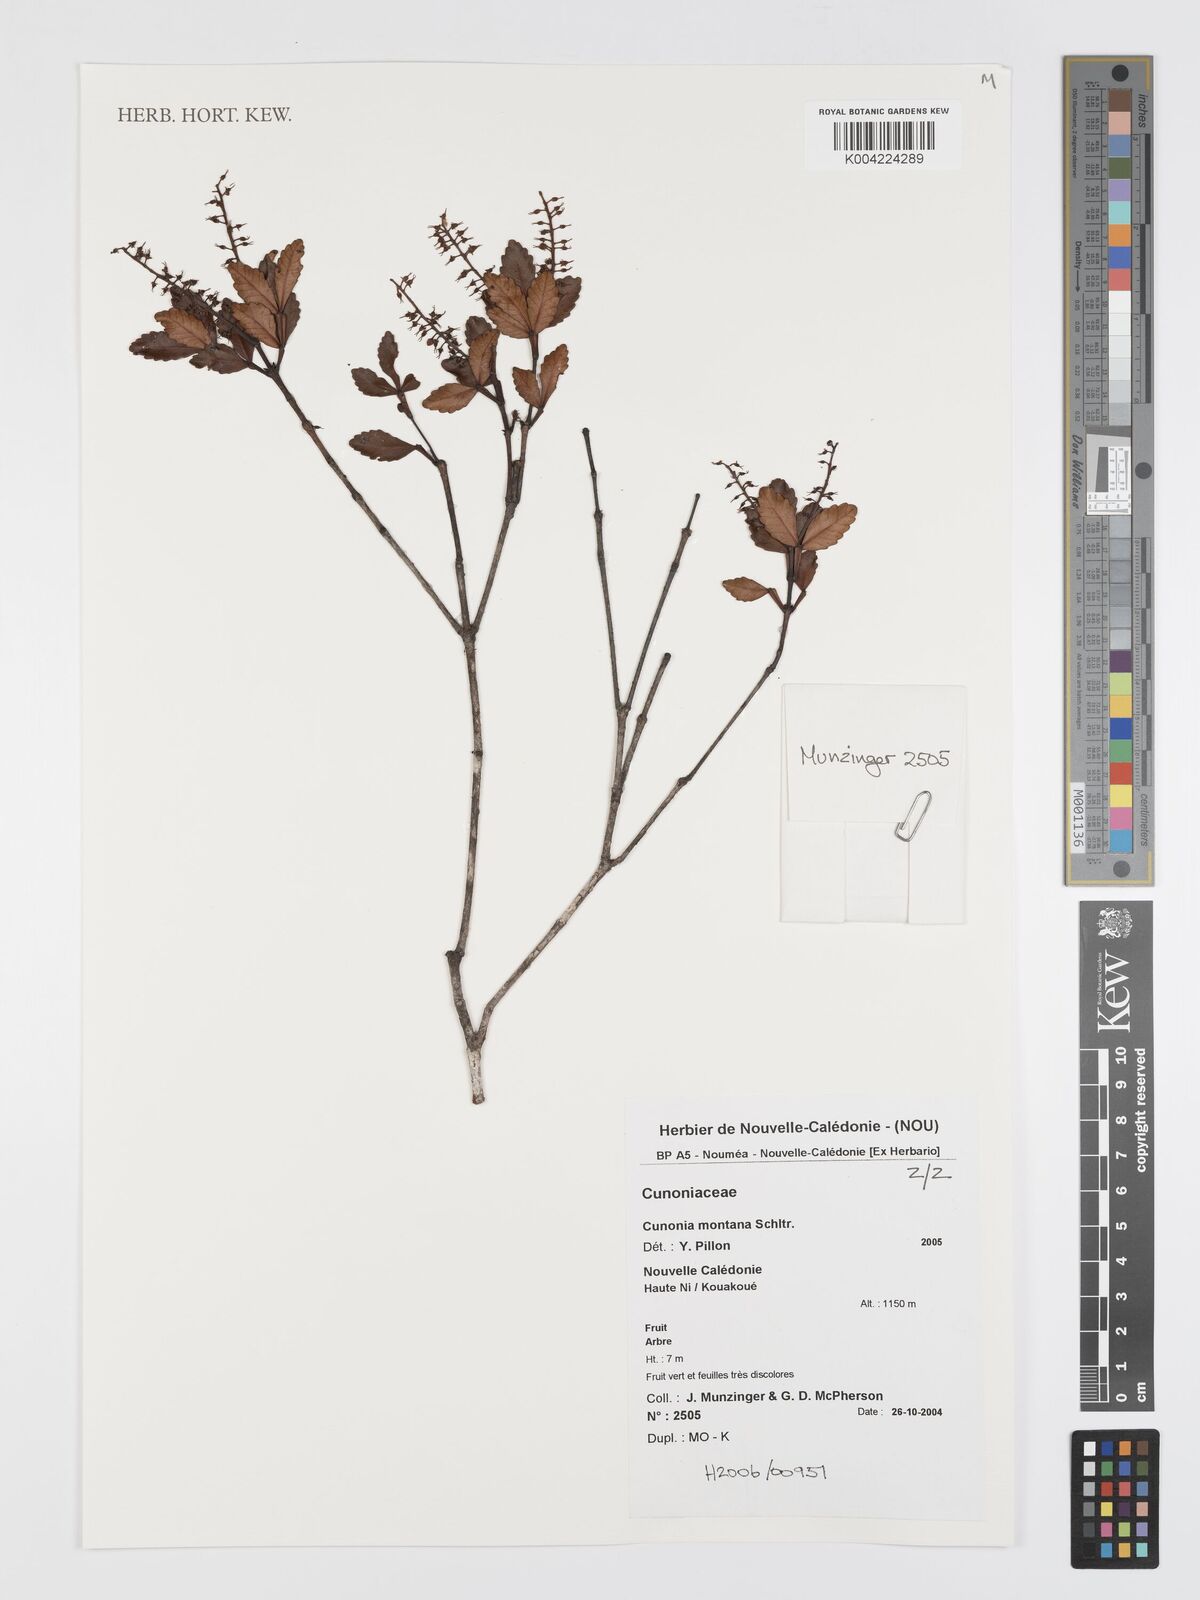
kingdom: Plantae
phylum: Tracheophyta
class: Magnoliopsida
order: Oxalidales
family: Cunoniaceae
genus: Cunonia
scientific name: Cunonia montana
